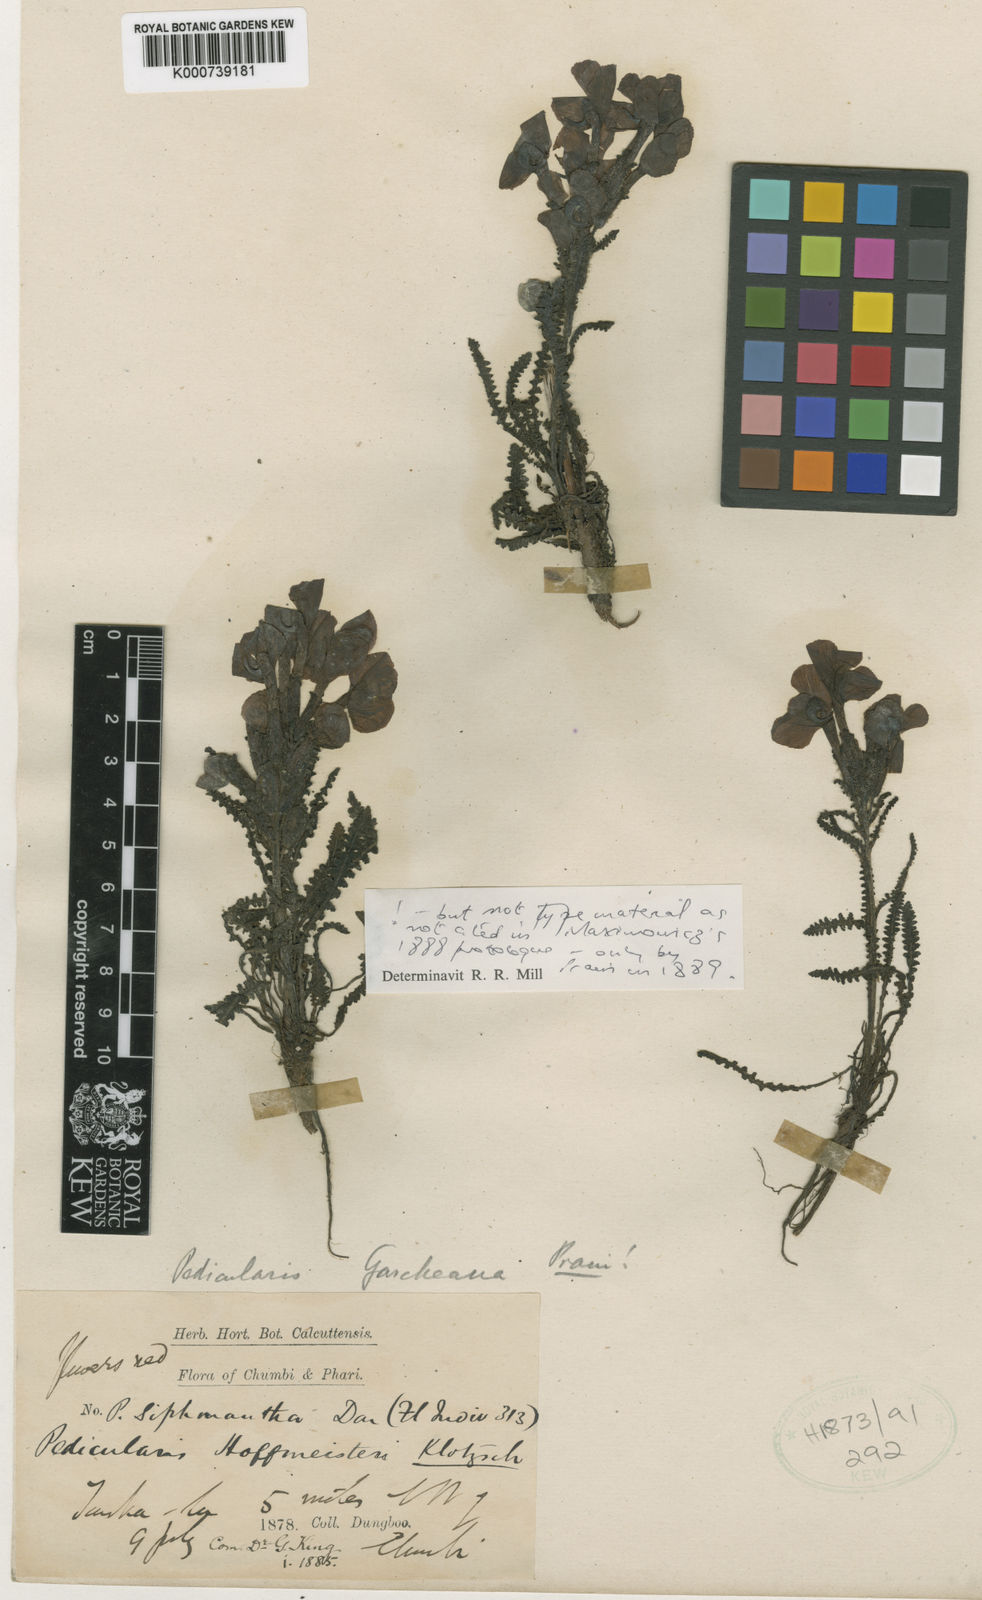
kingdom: Plantae
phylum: Tracheophyta
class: Magnoliopsida
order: Lamiales
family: Orobanchaceae
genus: Pedicularis
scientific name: Pedicularis garckeana
